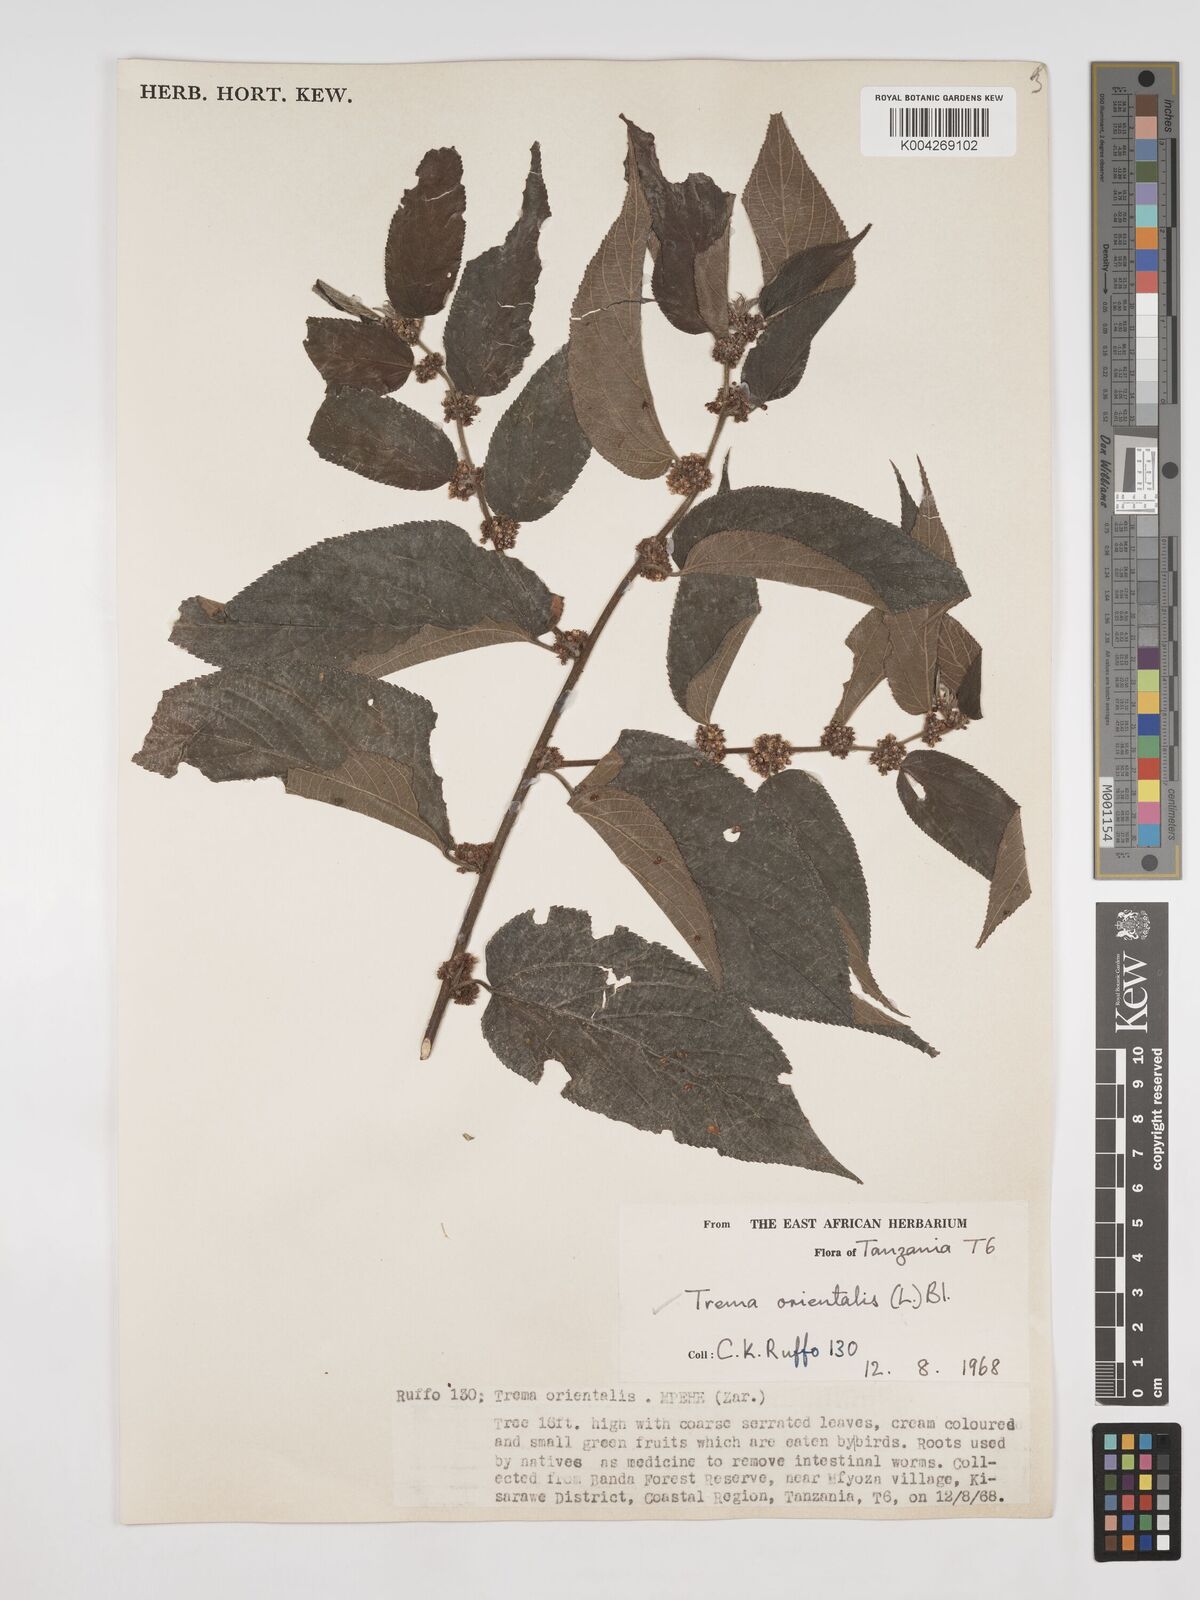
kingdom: Plantae
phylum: Tracheophyta
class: Magnoliopsida
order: Rosales
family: Cannabaceae
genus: Trema
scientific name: Trema orientale
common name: Indian charcoal tree
